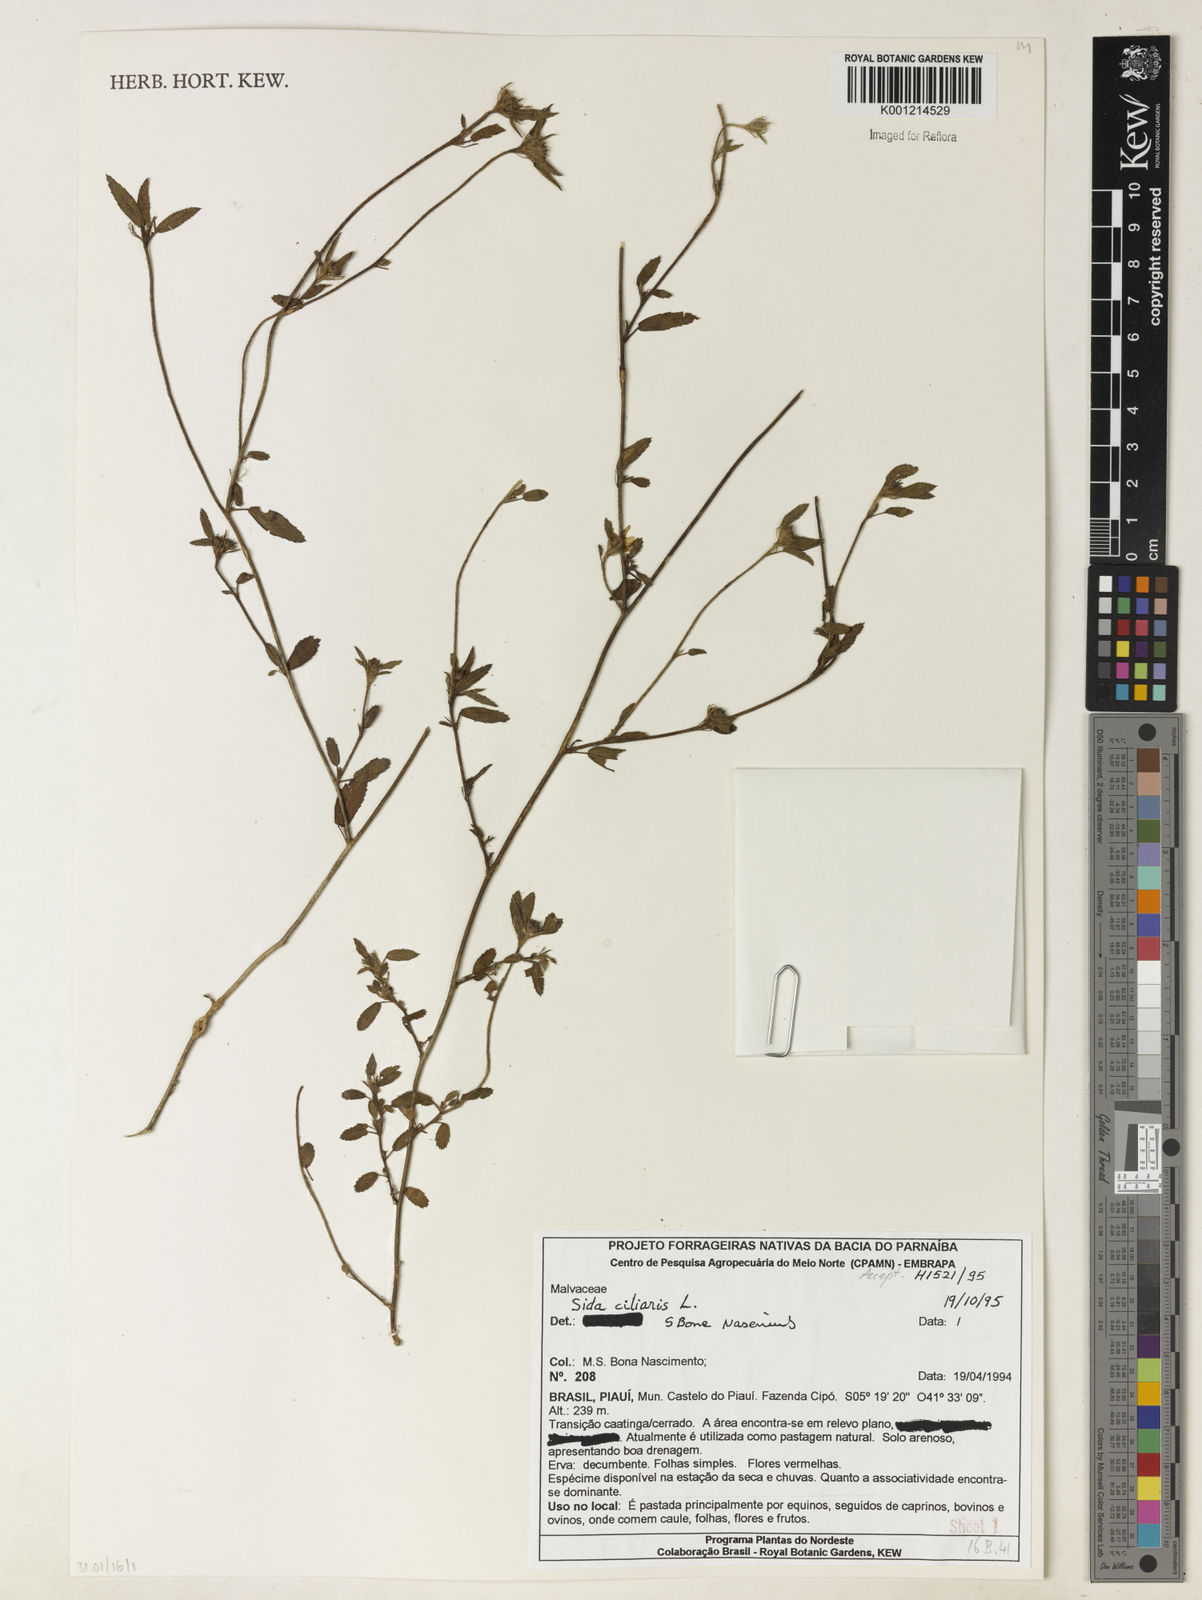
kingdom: Plantae
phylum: Tracheophyta
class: Magnoliopsida
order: Malvales
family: Malvaceae
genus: Sida
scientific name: Sida ciliaris
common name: Bracted fanpetals
